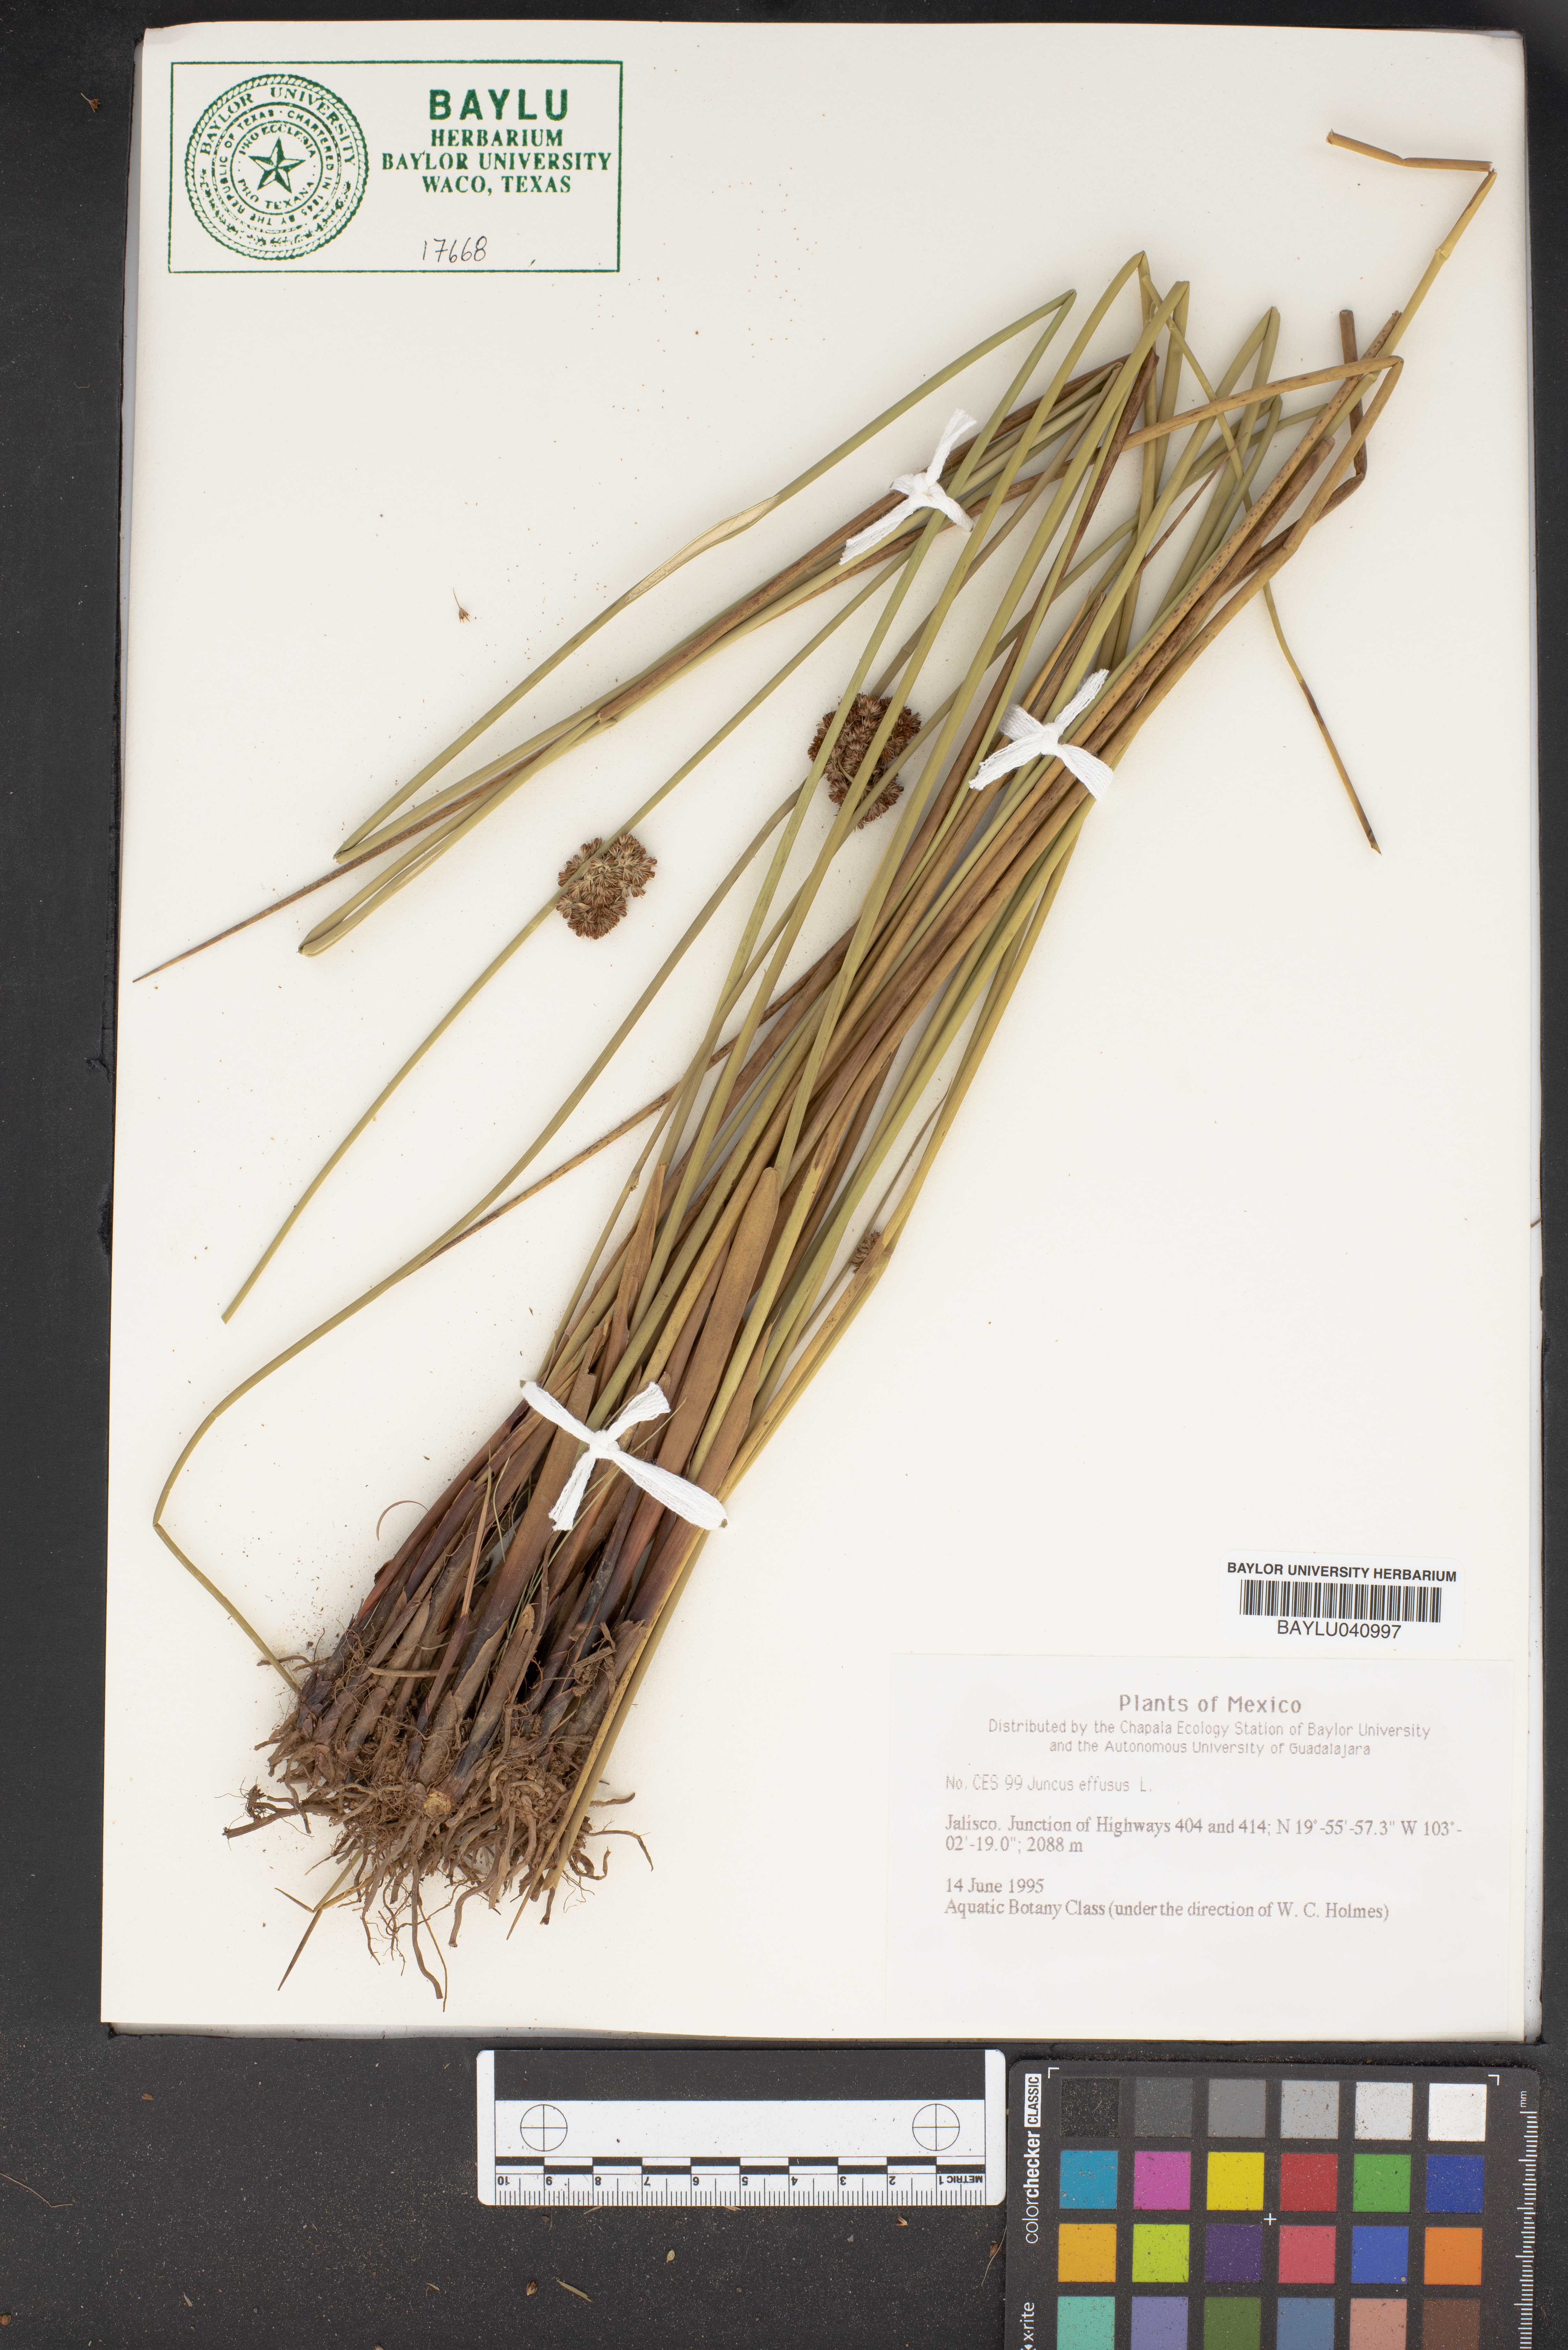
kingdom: Plantae
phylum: Tracheophyta
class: Liliopsida
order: Poales
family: Juncaceae
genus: Juncus
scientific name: Juncus effusus
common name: Soft rush
